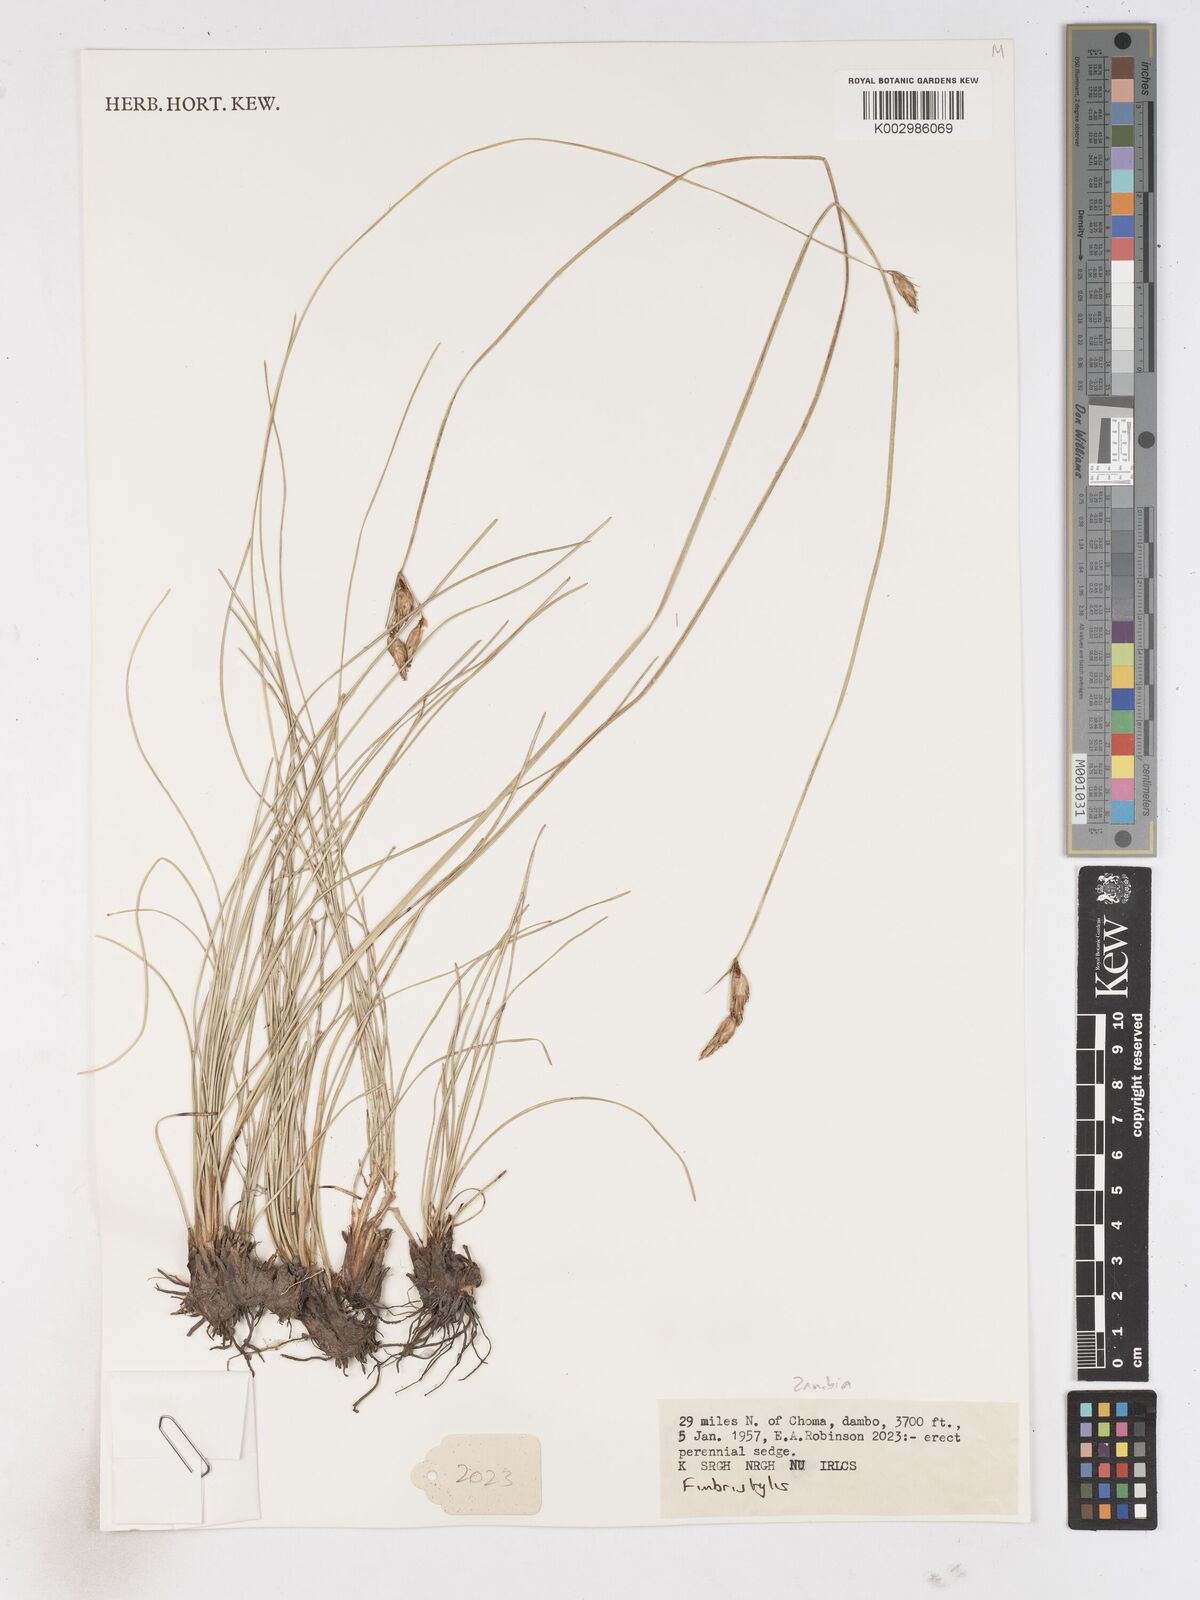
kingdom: Plantae
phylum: Tracheophyta
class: Liliopsida
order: Poales
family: Cyperaceae
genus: Fimbristylis
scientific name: Fimbristylis
